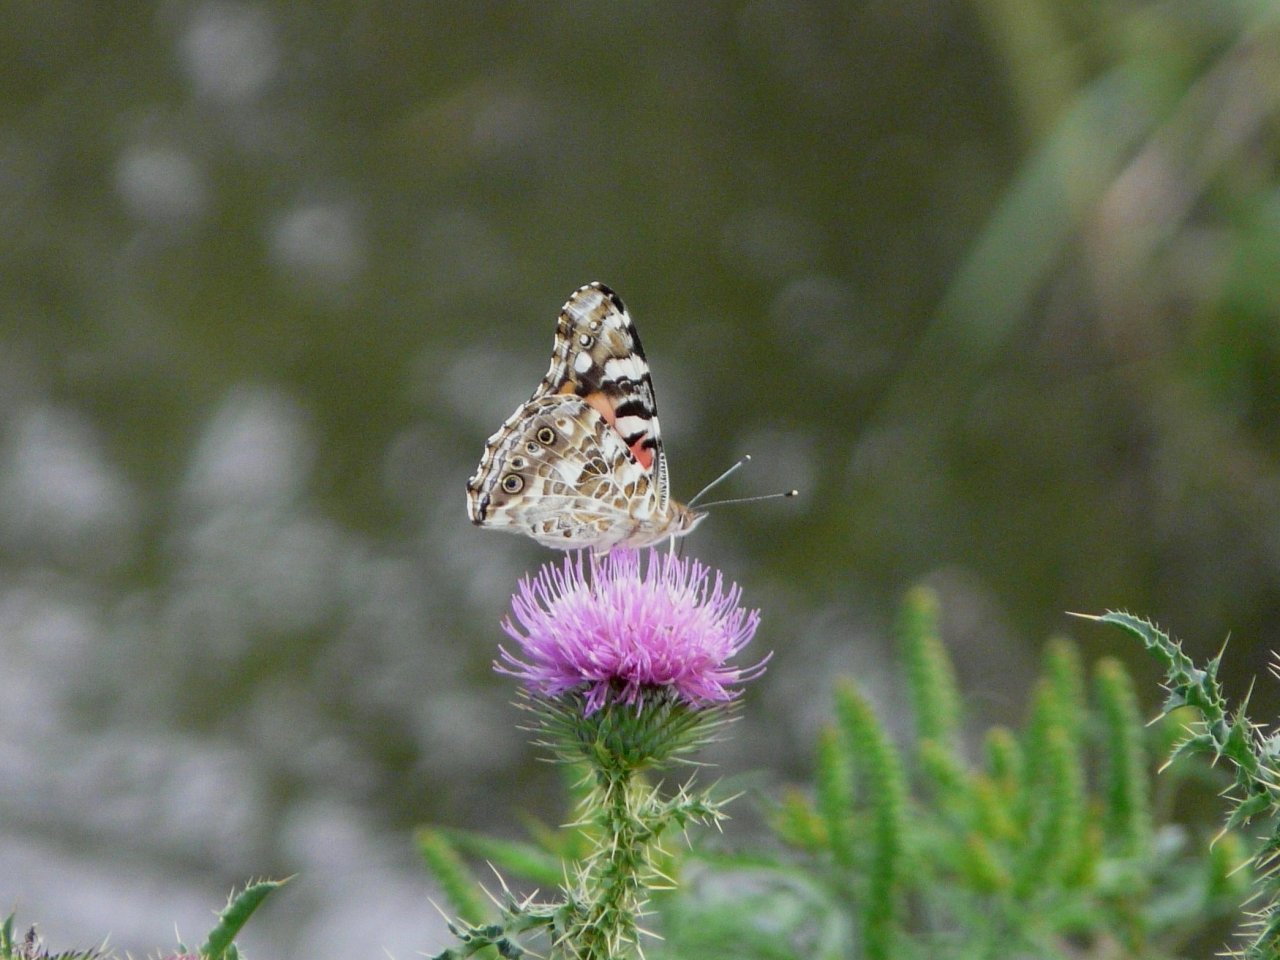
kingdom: Animalia
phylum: Arthropoda
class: Insecta
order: Lepidoptera
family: Nymphalidae
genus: Vanessa
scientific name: Vanessa cardui
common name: Painted Lady
